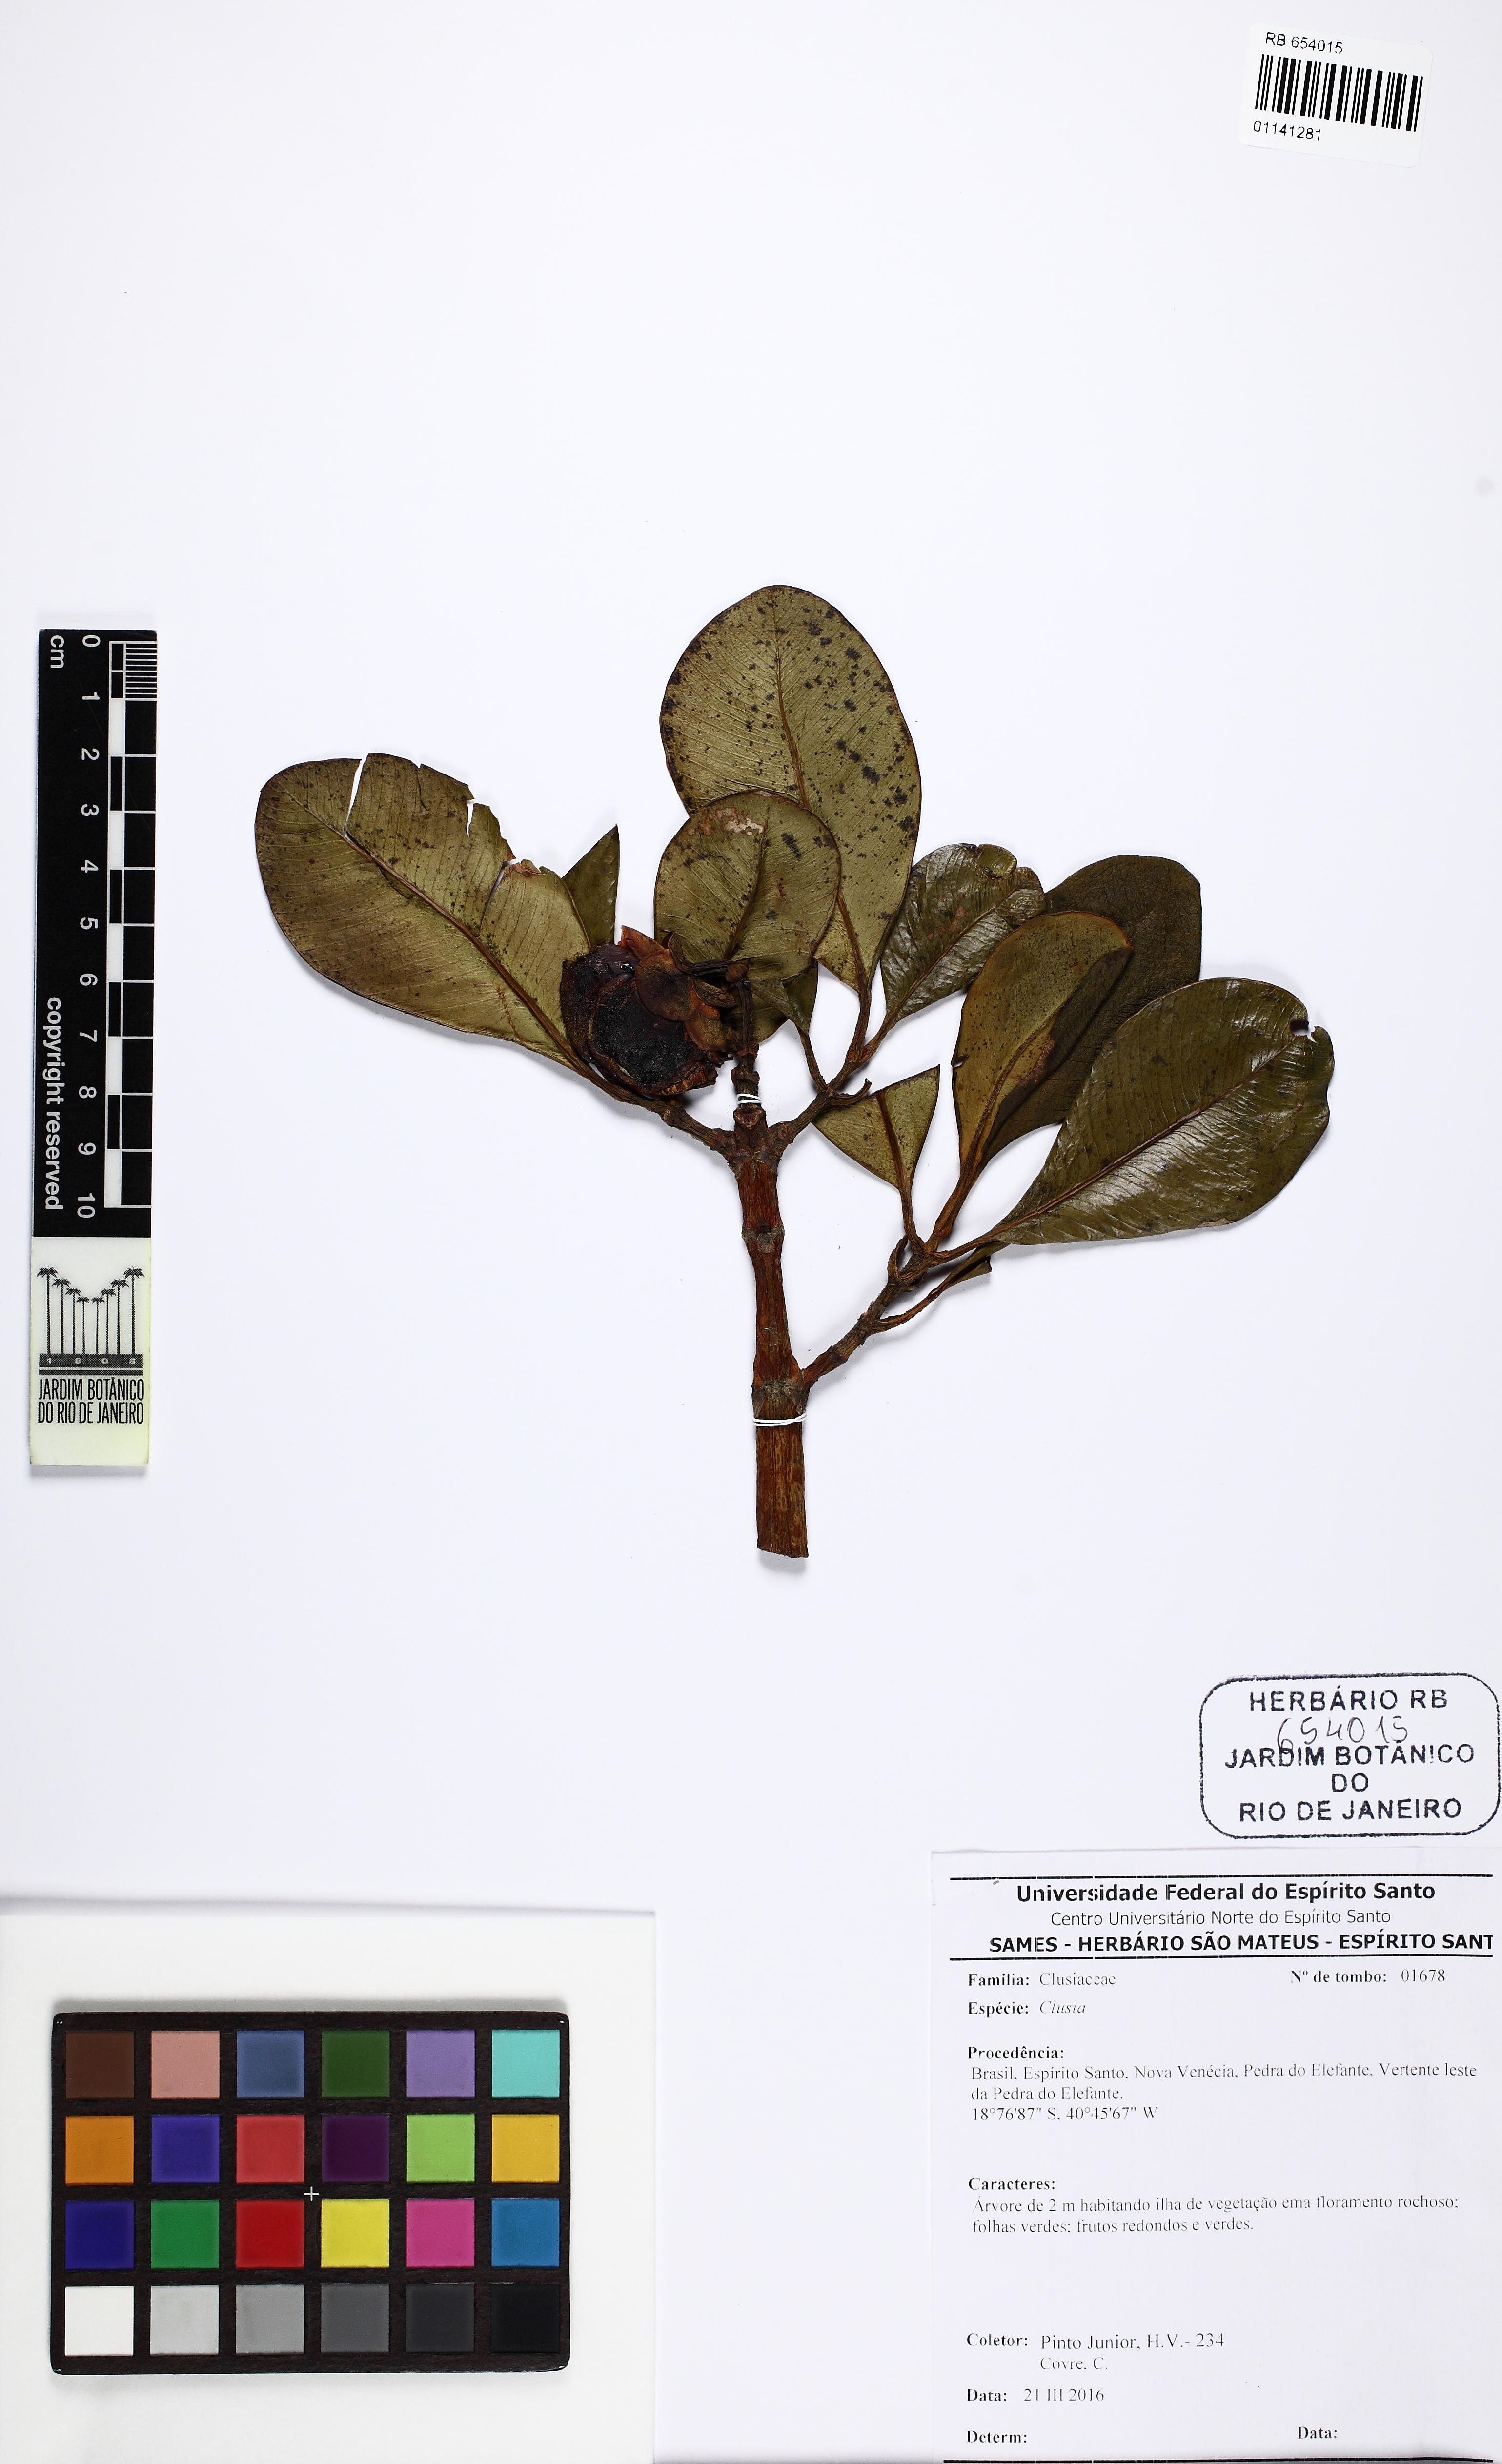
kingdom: Plantae
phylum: Tracheophyta
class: Magnoliopsida
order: Malpighiales
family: Clusiaceae
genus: Clusia
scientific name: Clusia
